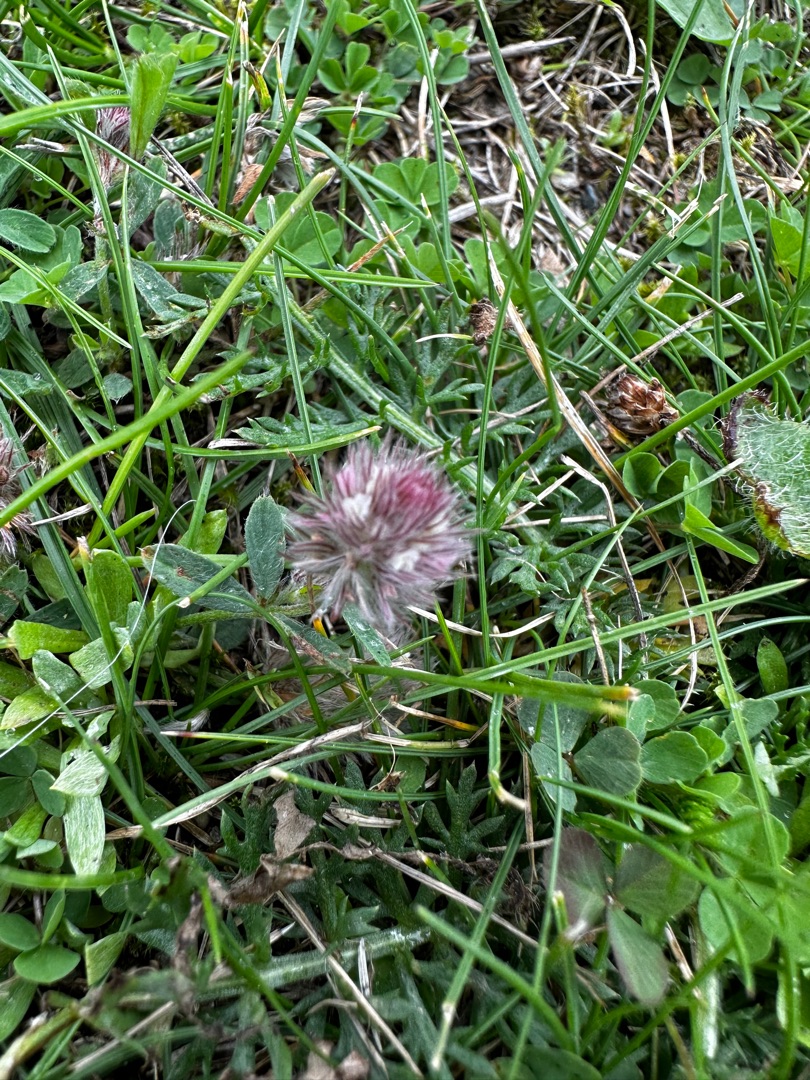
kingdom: Plantae
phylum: Tracheophyta
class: Magnoliopsida
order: Fabales
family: Fabaceae
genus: Trifolium
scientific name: Trifolium arvense
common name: Hare-kløver
